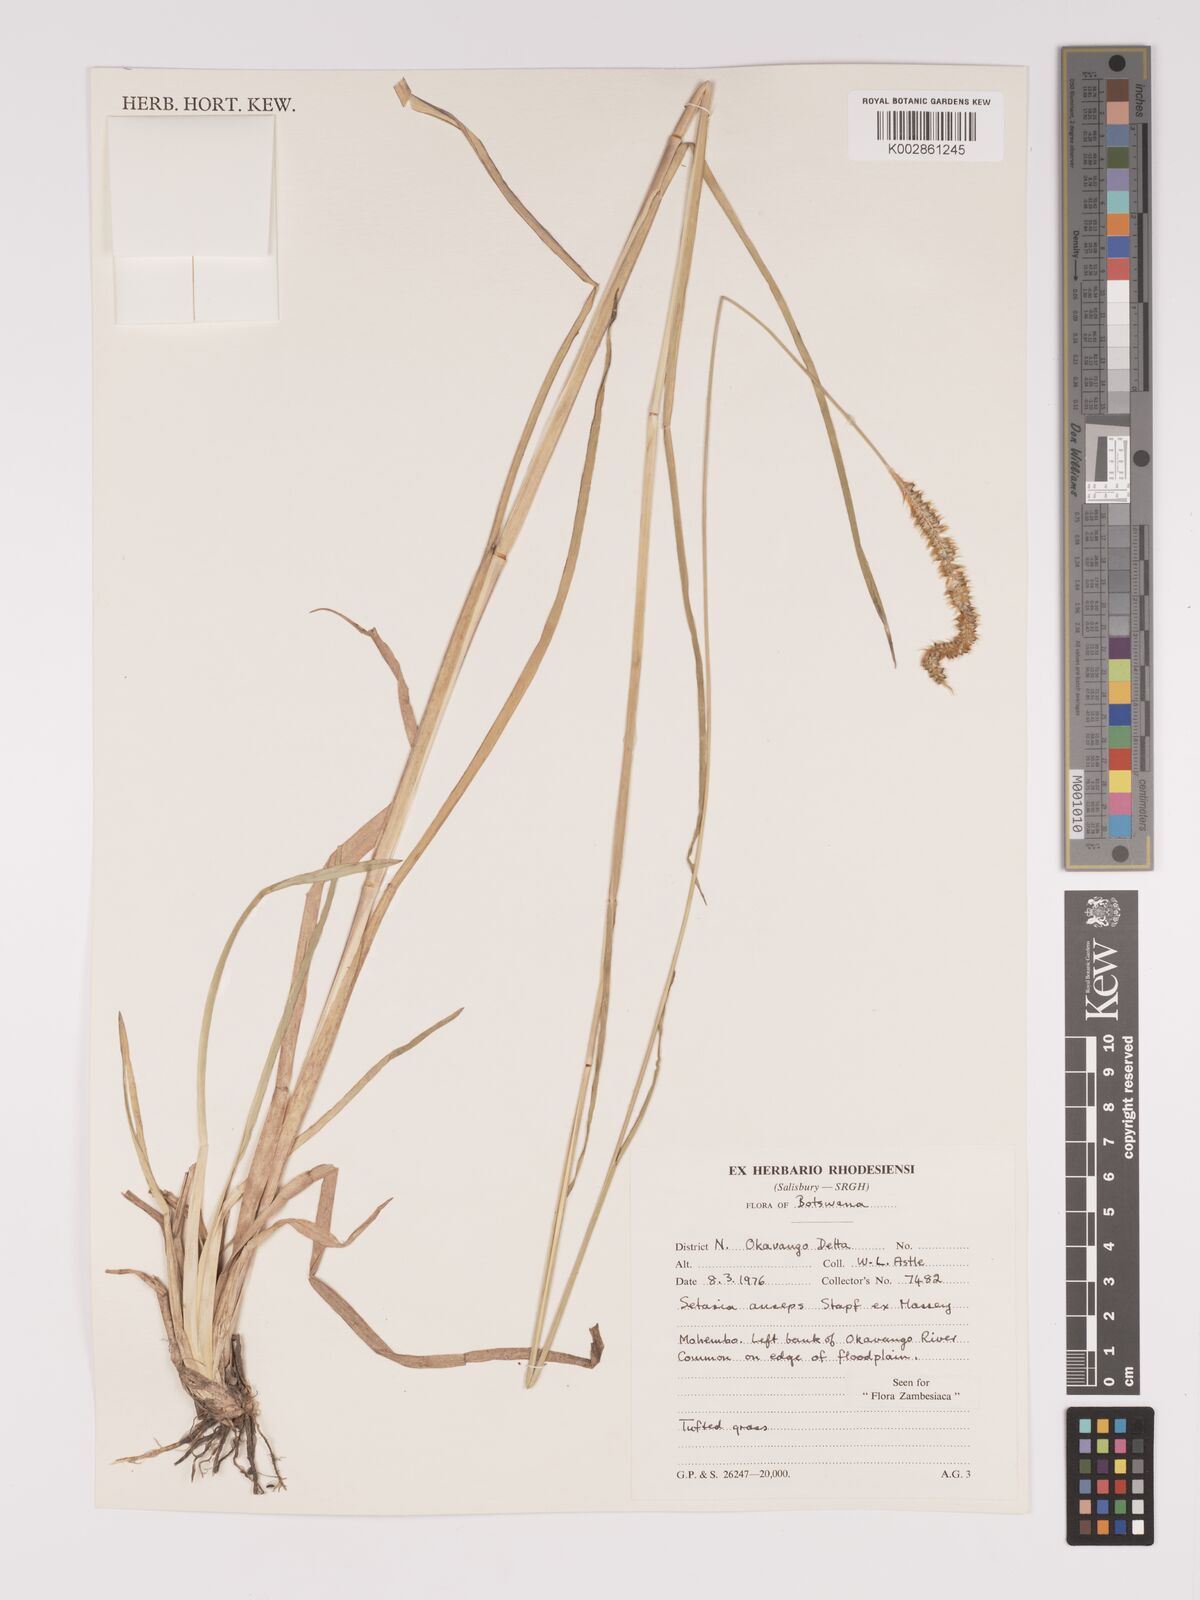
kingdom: Plantae
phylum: Tracheophyta
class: Liliopsida
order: Poales
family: Poaceae
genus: Setaria
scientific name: Setaria sphacelata
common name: African bristlegrass
